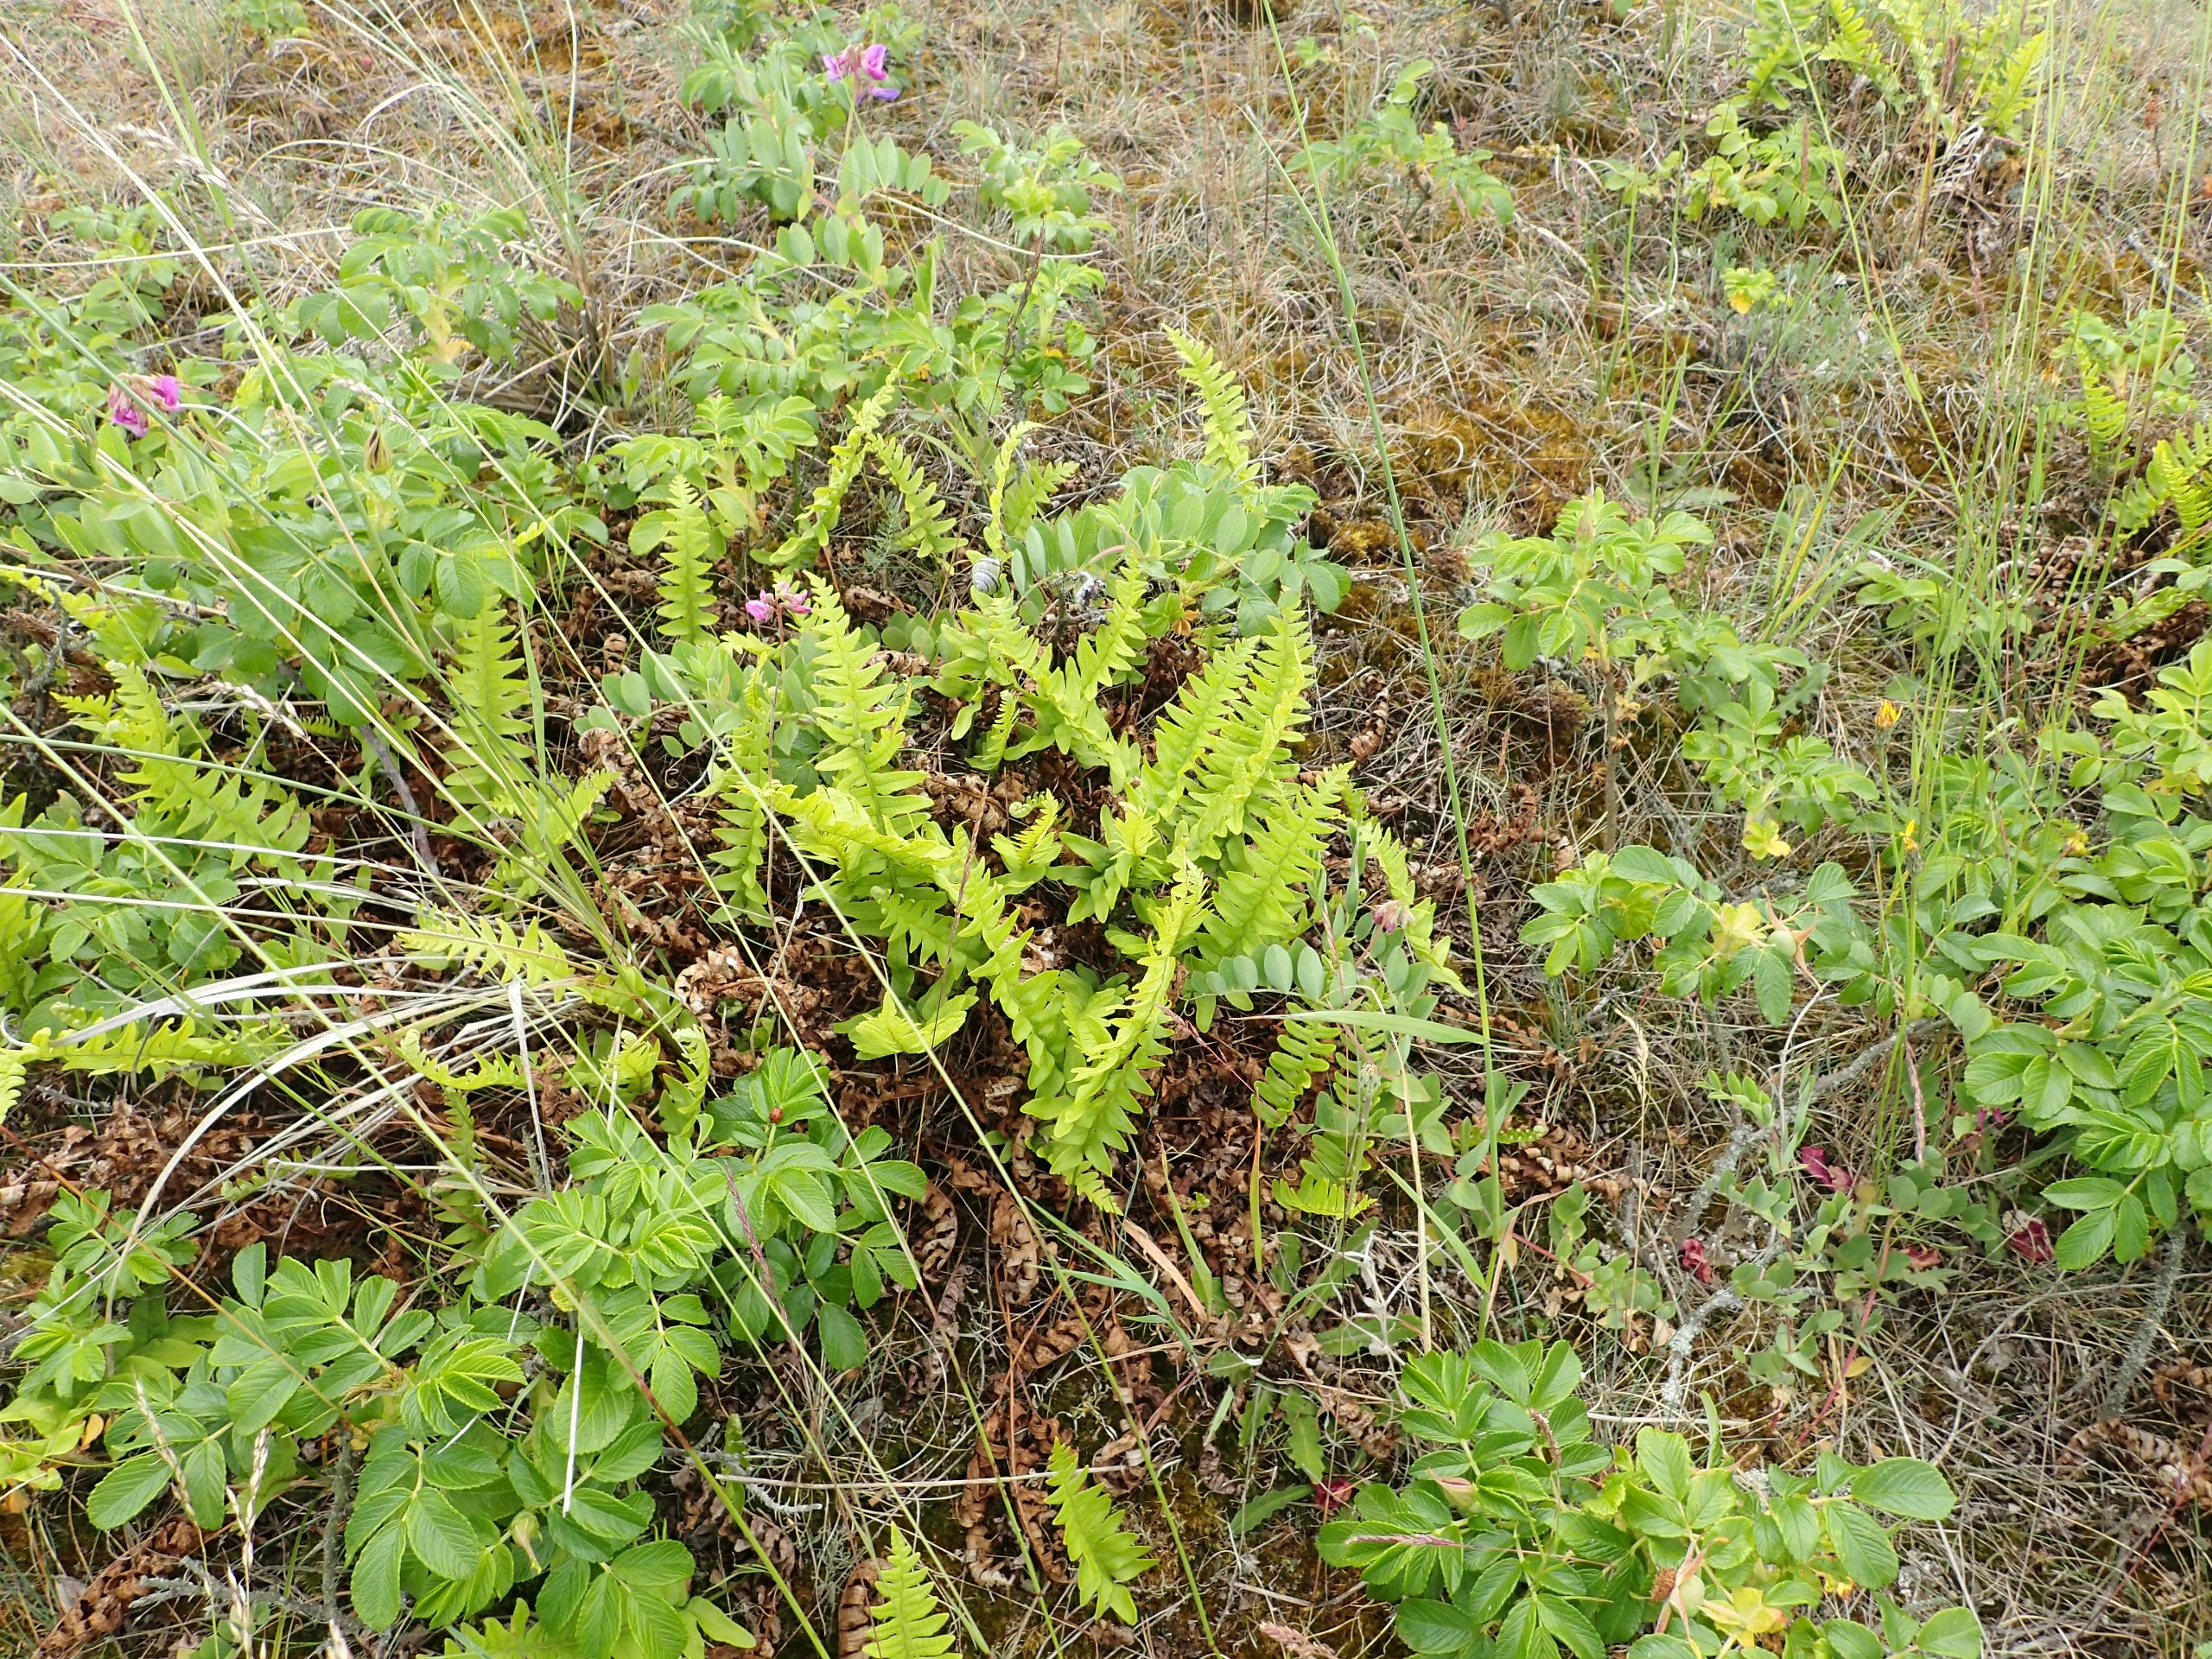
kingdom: Plantae
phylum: Tracheophyta
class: Polypodiopsida
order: Polypodiales
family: Polypodiaceae
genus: Polypodium
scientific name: Polypodium vulgare
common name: Almindelig engelsød
